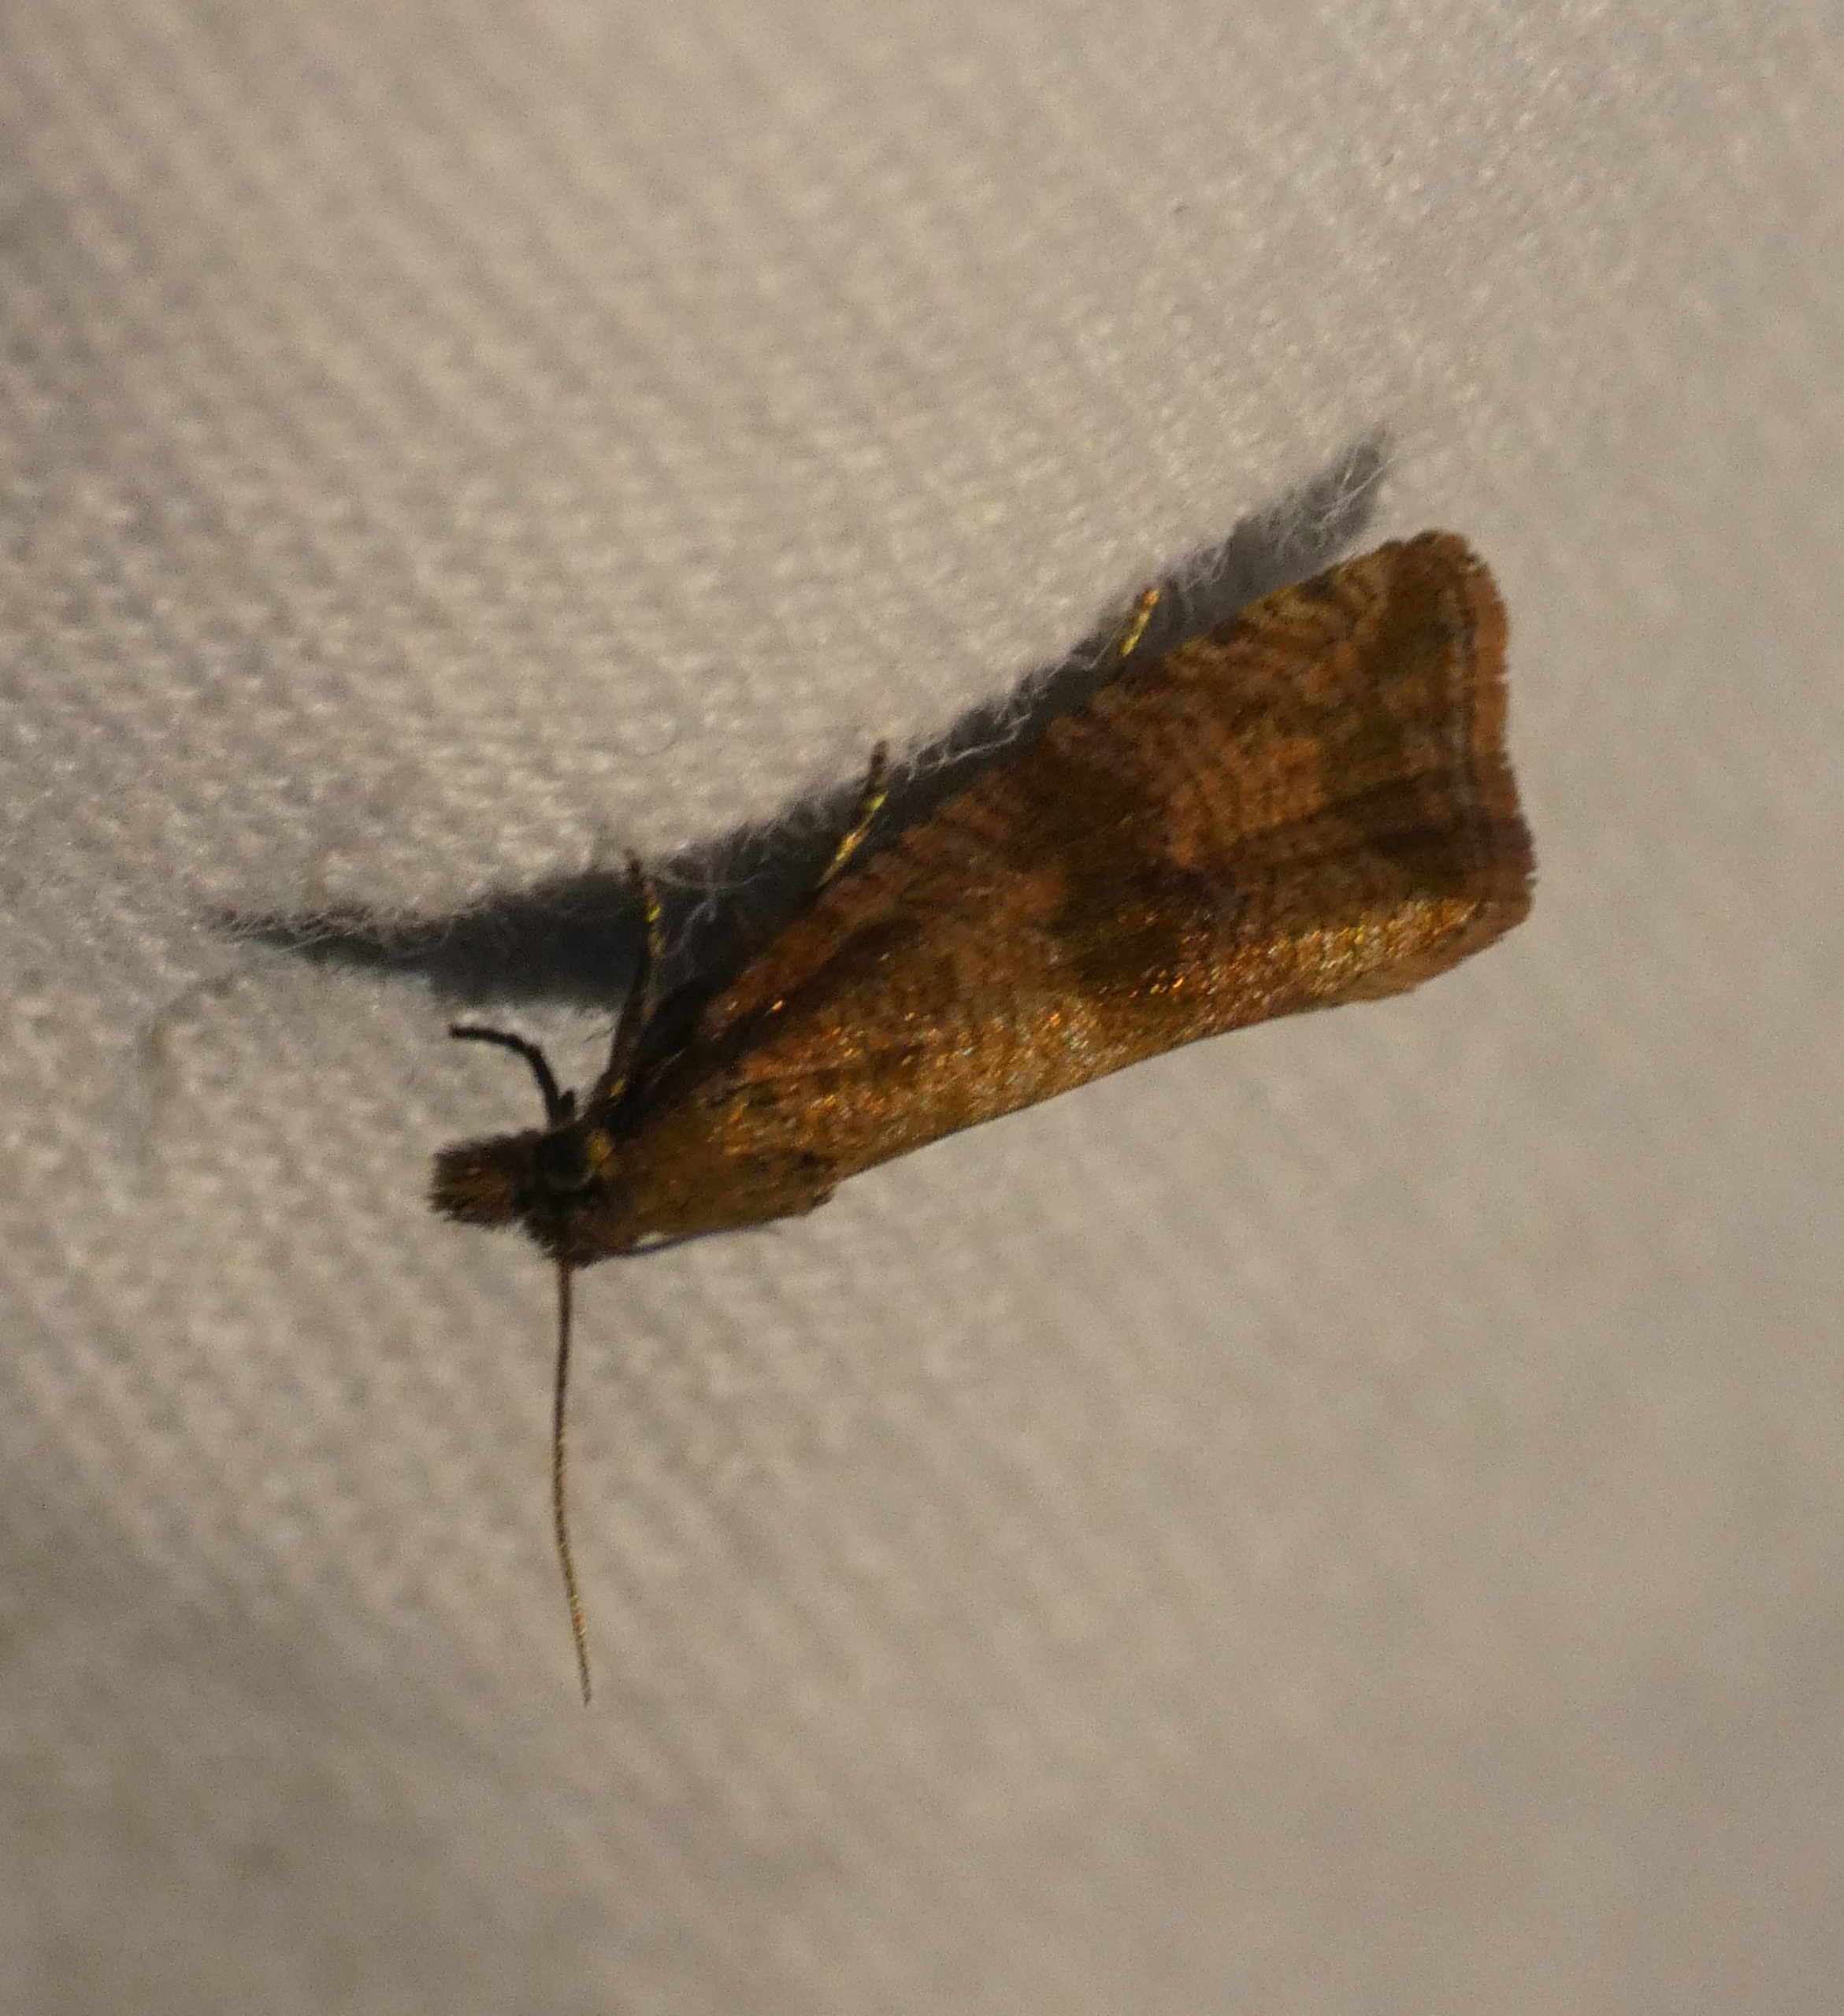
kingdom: Animalia
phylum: Arthropoda
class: Insecta
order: Lepidoptera
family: Tortricidae
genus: Celypha
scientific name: Celypha striana
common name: Mælkebøttevikler
